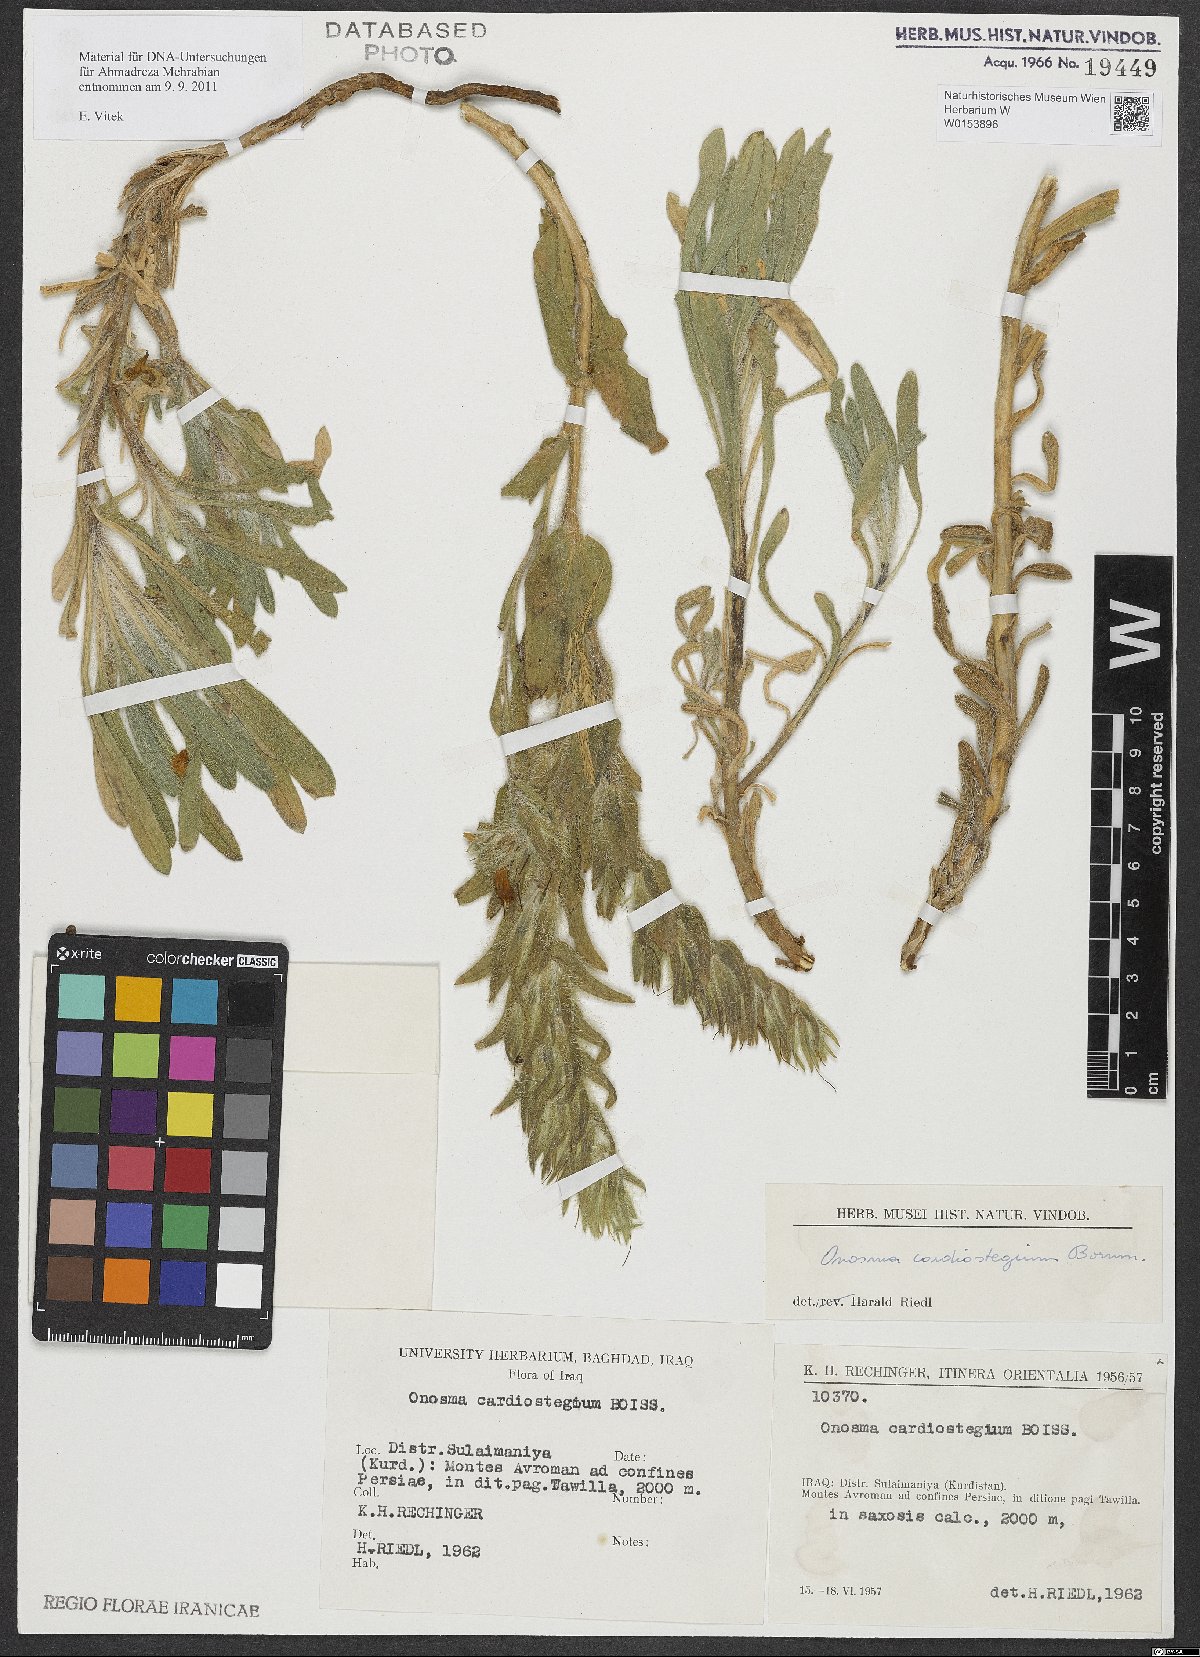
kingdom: Plantae
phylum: Tracheophyta
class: Magnoliopsida
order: Boraginales
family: Boraginaceae
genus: Onosma
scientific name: Onosma cardiostegia
